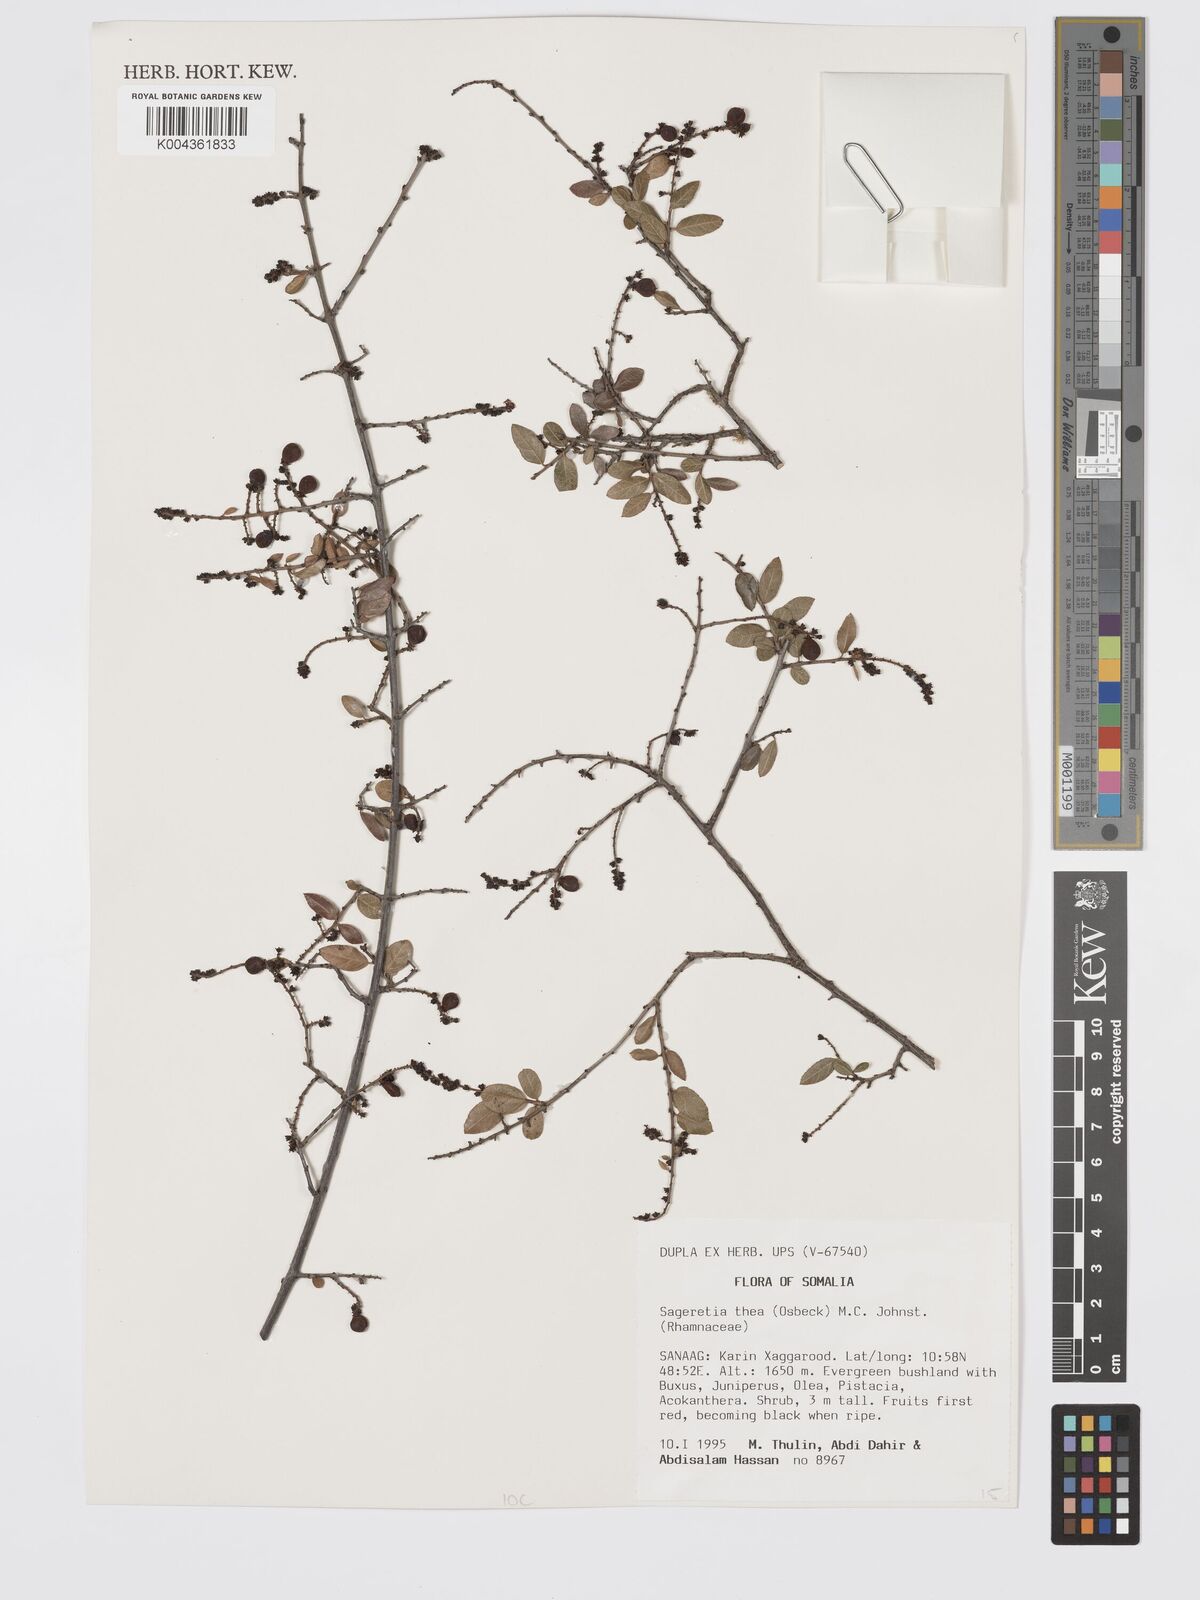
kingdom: Plantae
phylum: Tracheophyta
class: Magnoliopsida
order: Rosales
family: Rhamnaceae
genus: Sageretia
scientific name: Sageretia thea
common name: Pauper's-tea
